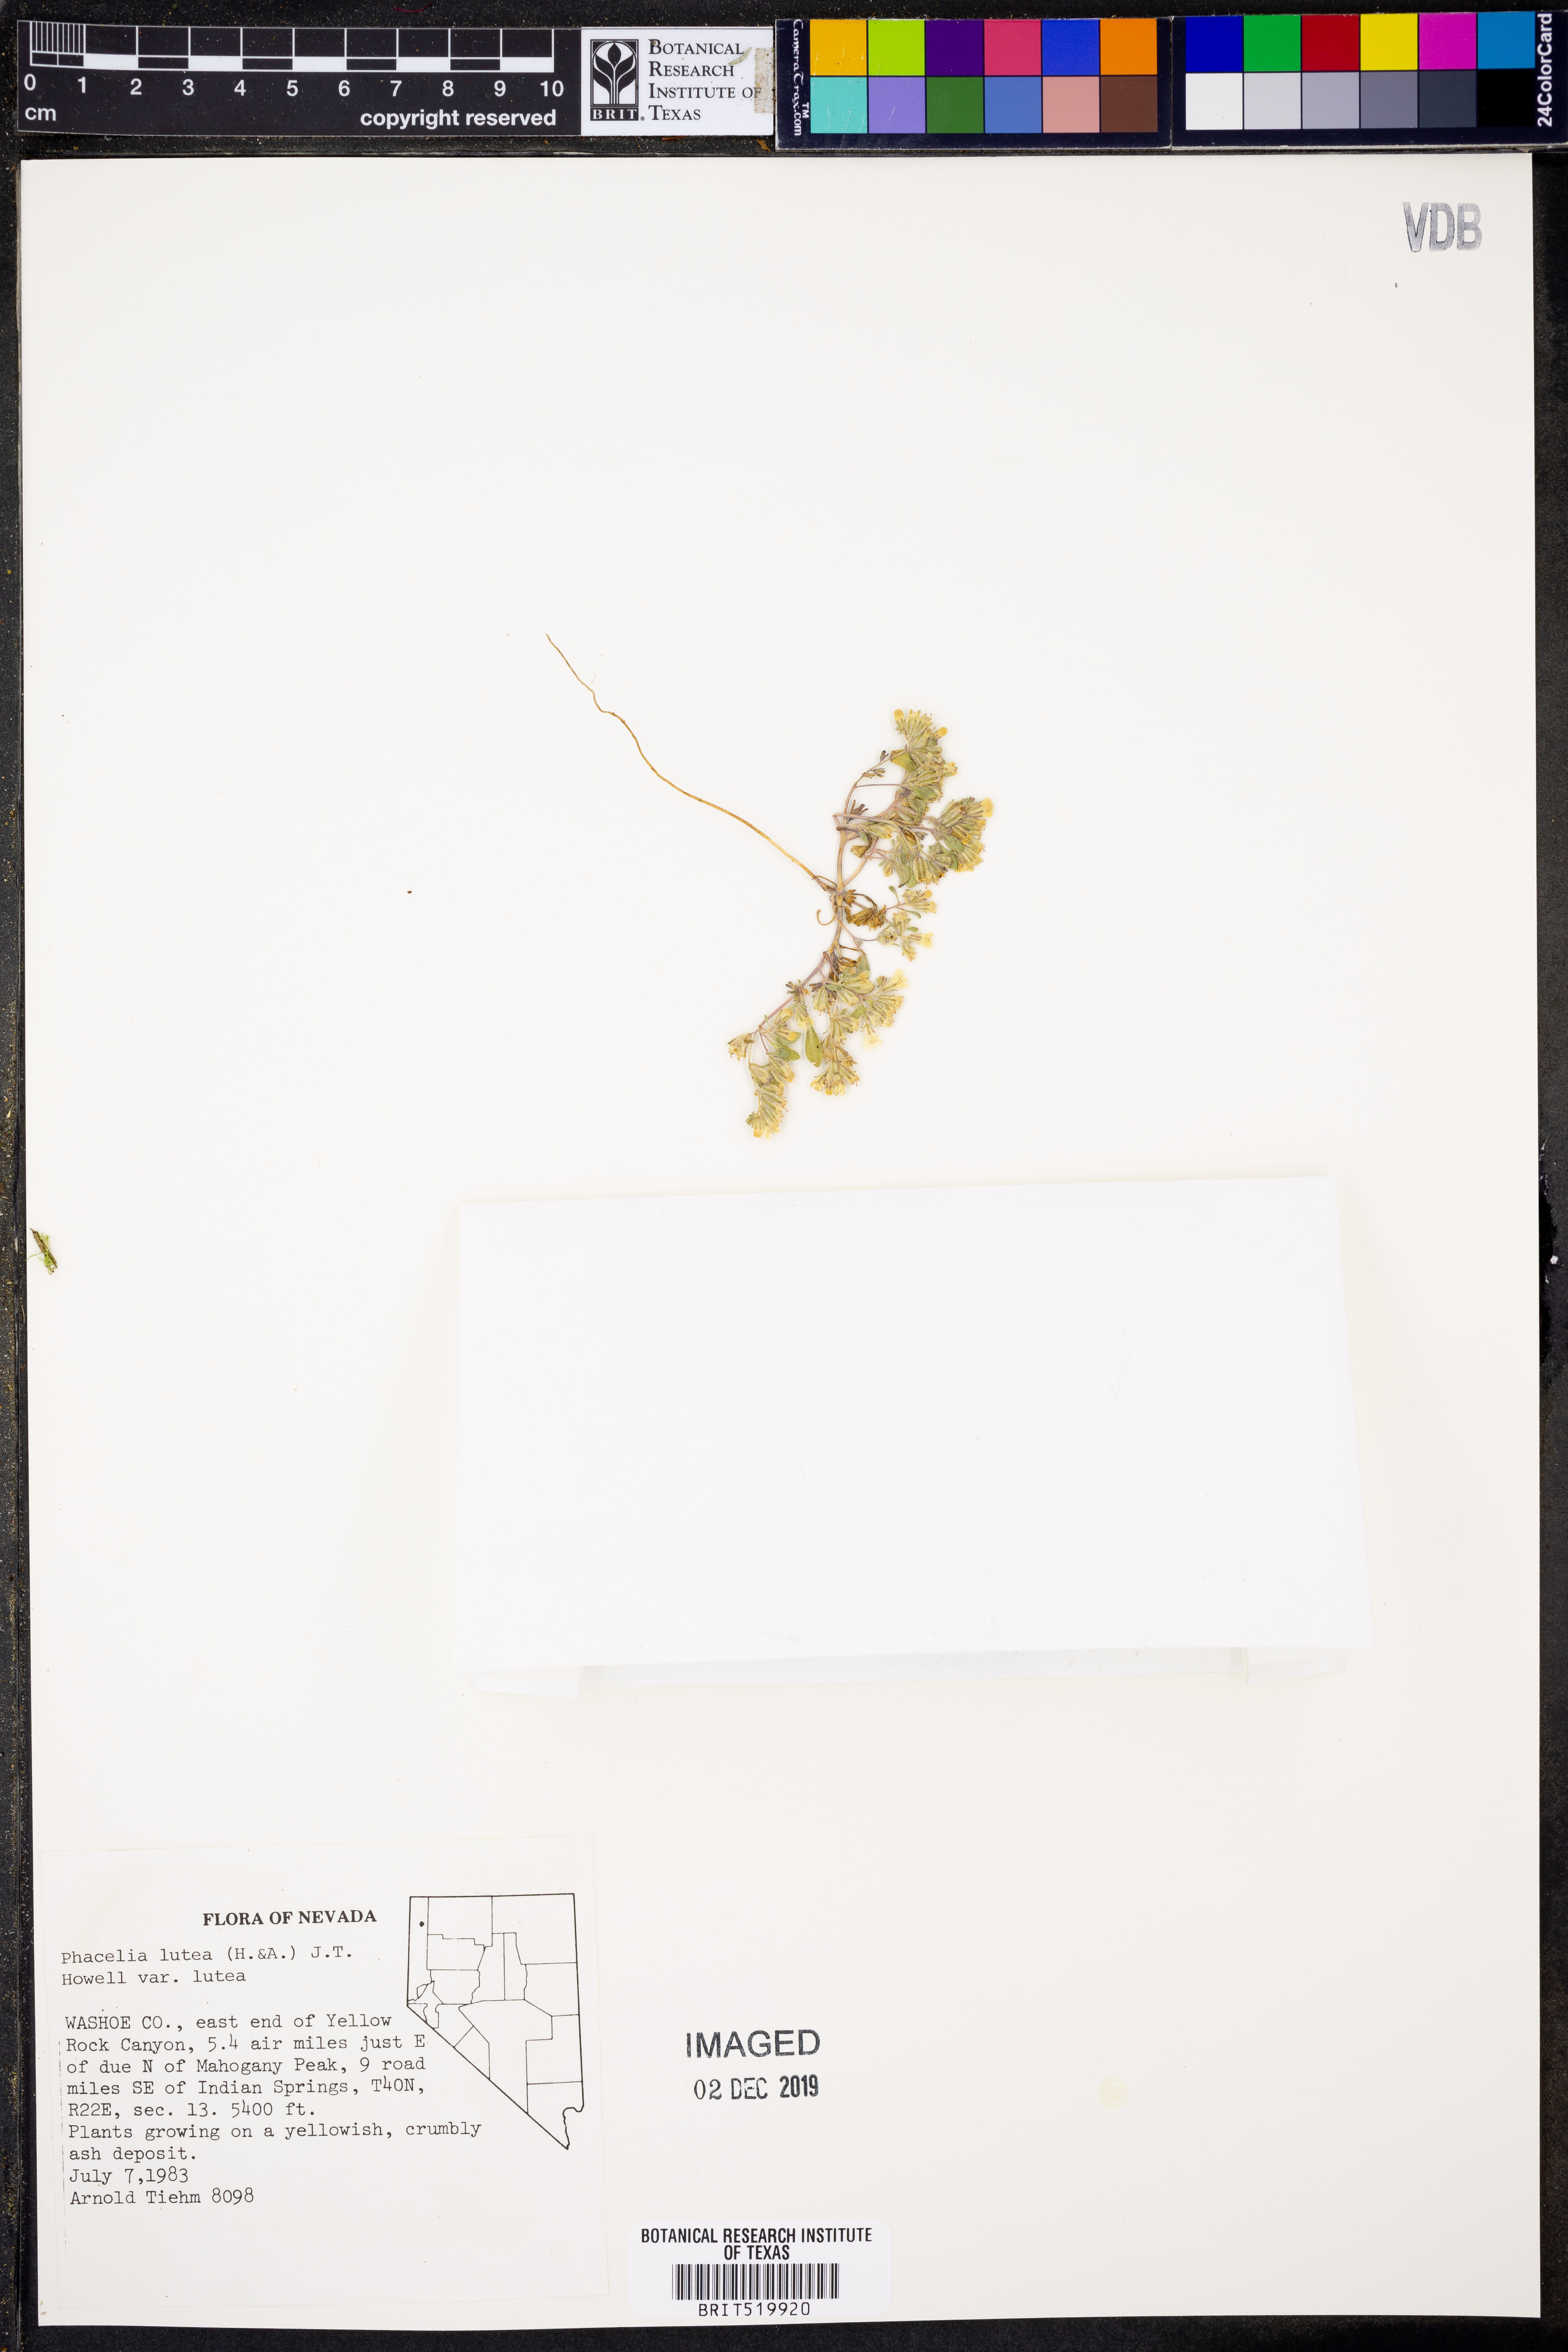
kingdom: Plantae
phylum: Tracheophyta
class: Magnoliopsida
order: Boraginales
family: Hydrophyllaceae
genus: Phacelia
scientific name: Phacelia lutea
